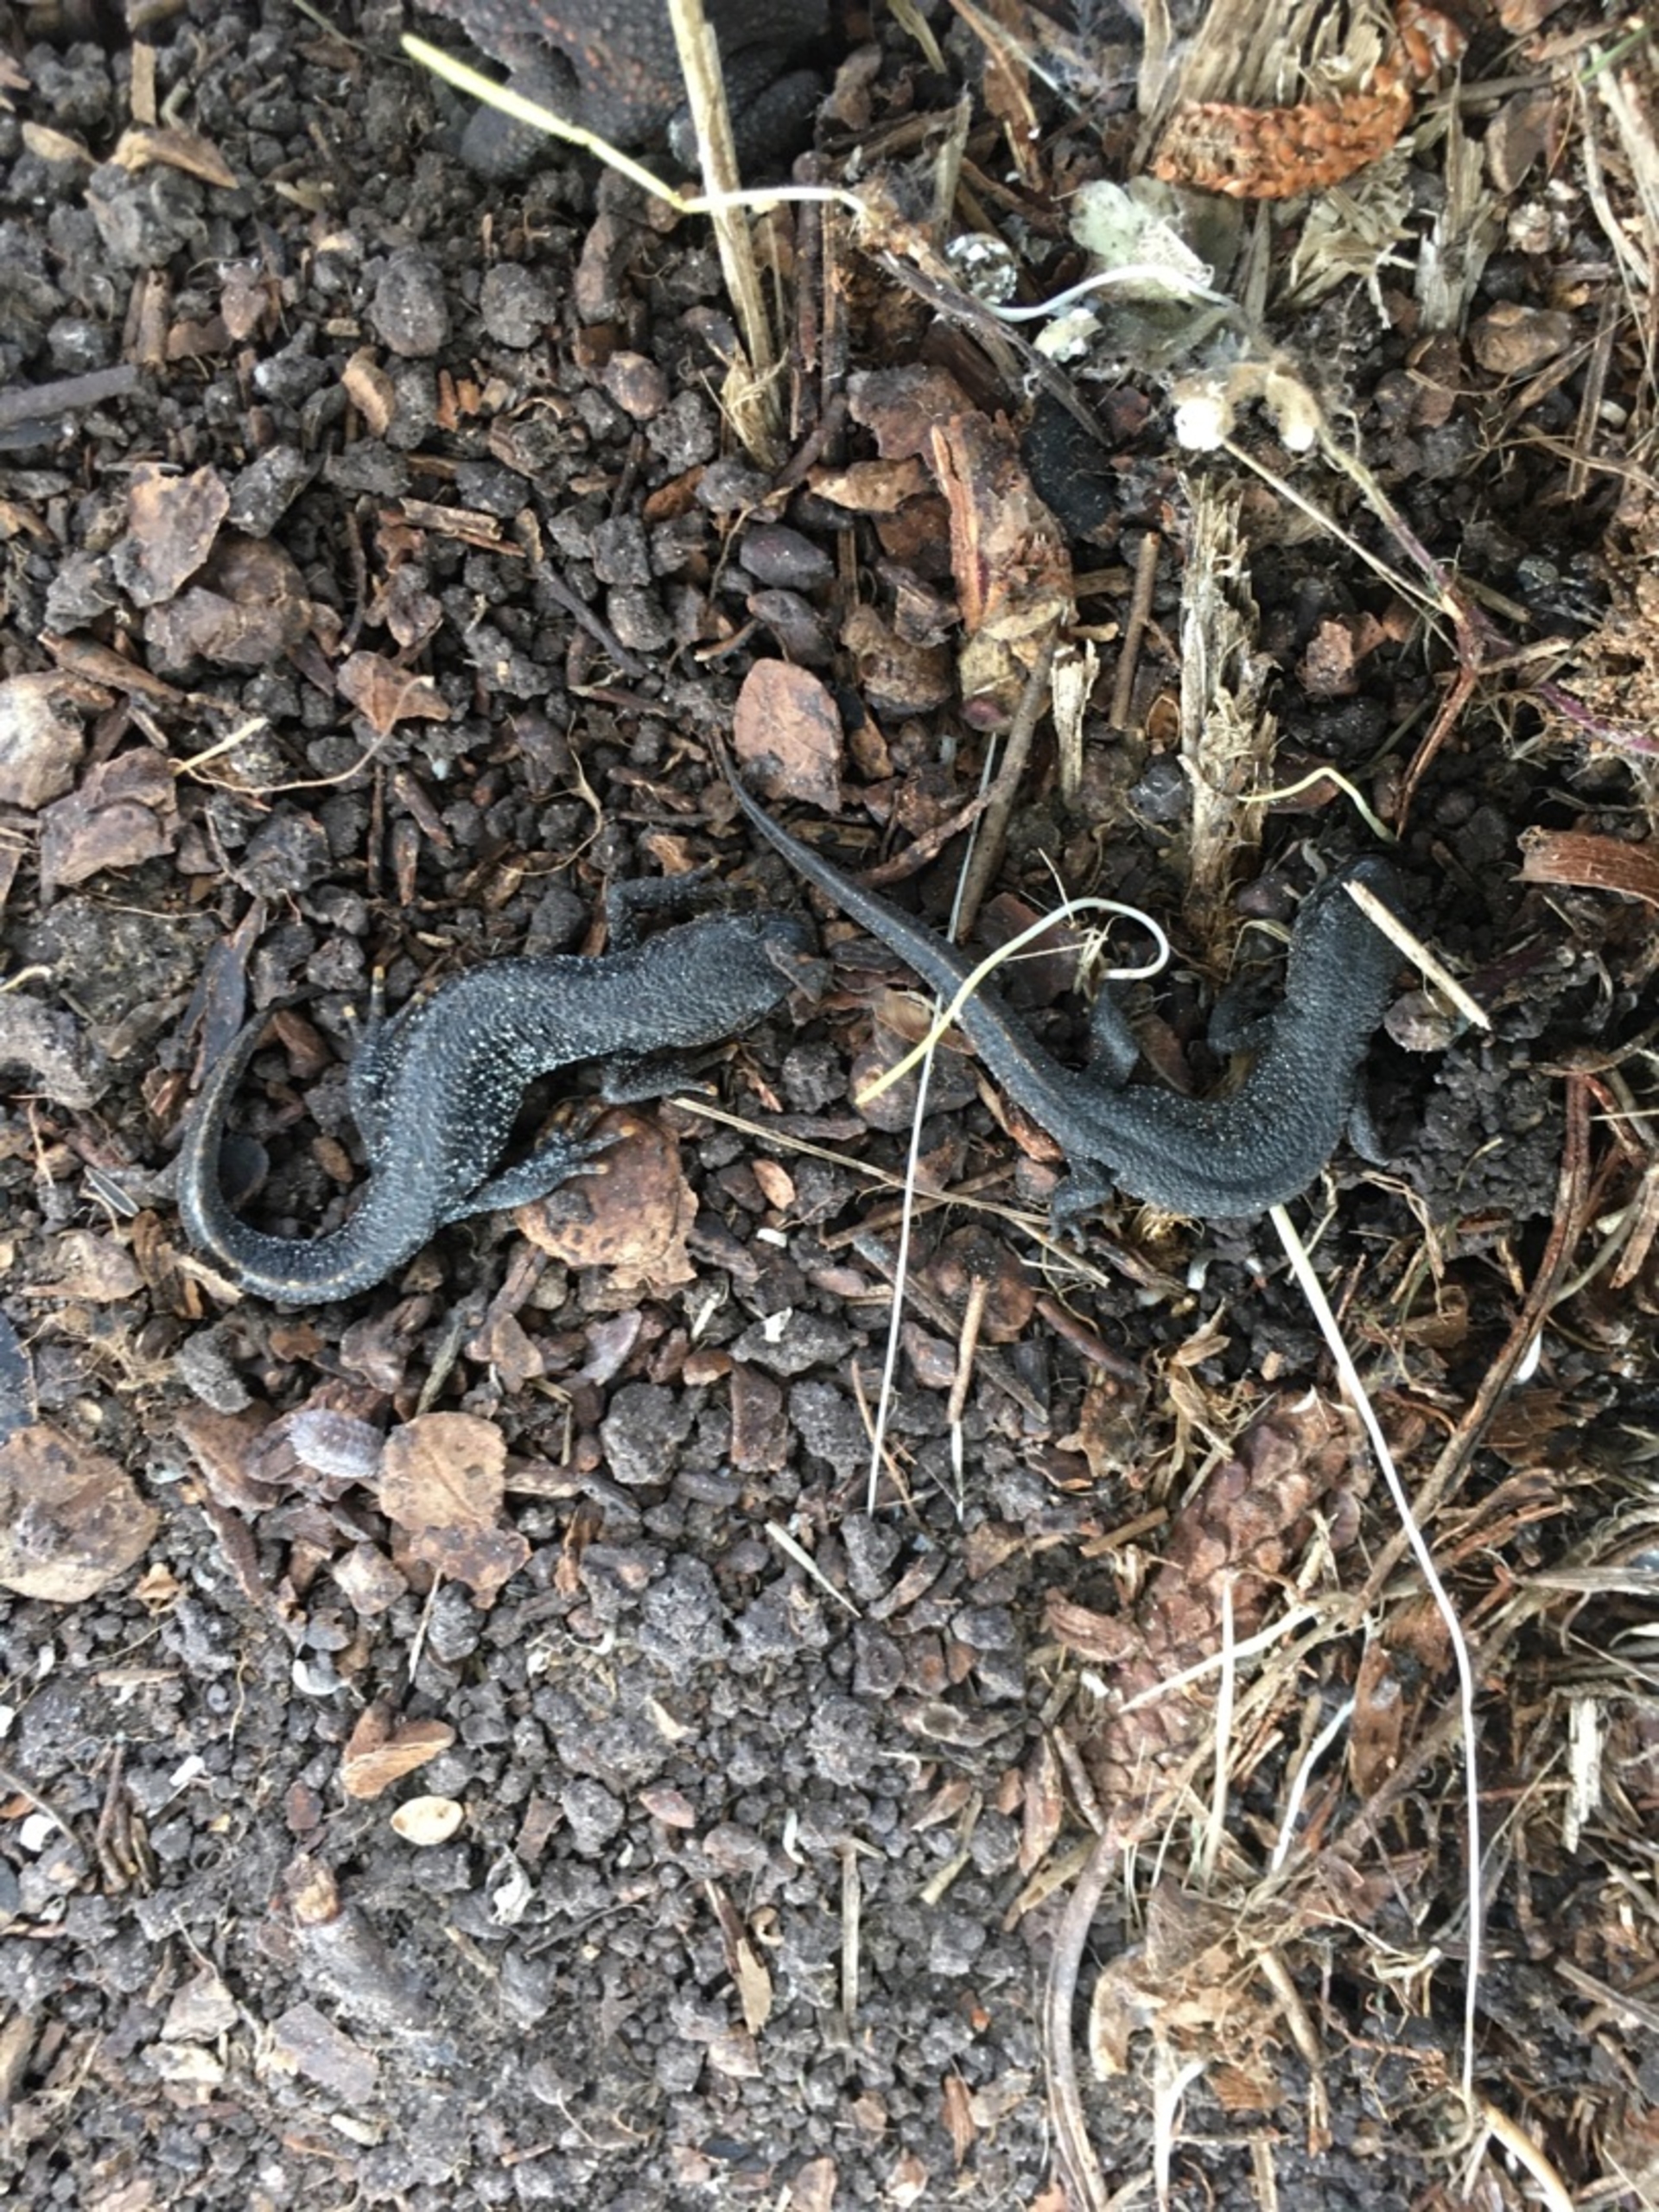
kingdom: Animalia
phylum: Chordata
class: Amphibia
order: Caudata
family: Salamandridae
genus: Triturus
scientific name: Triturus cristatus
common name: Stor vandsalamander
